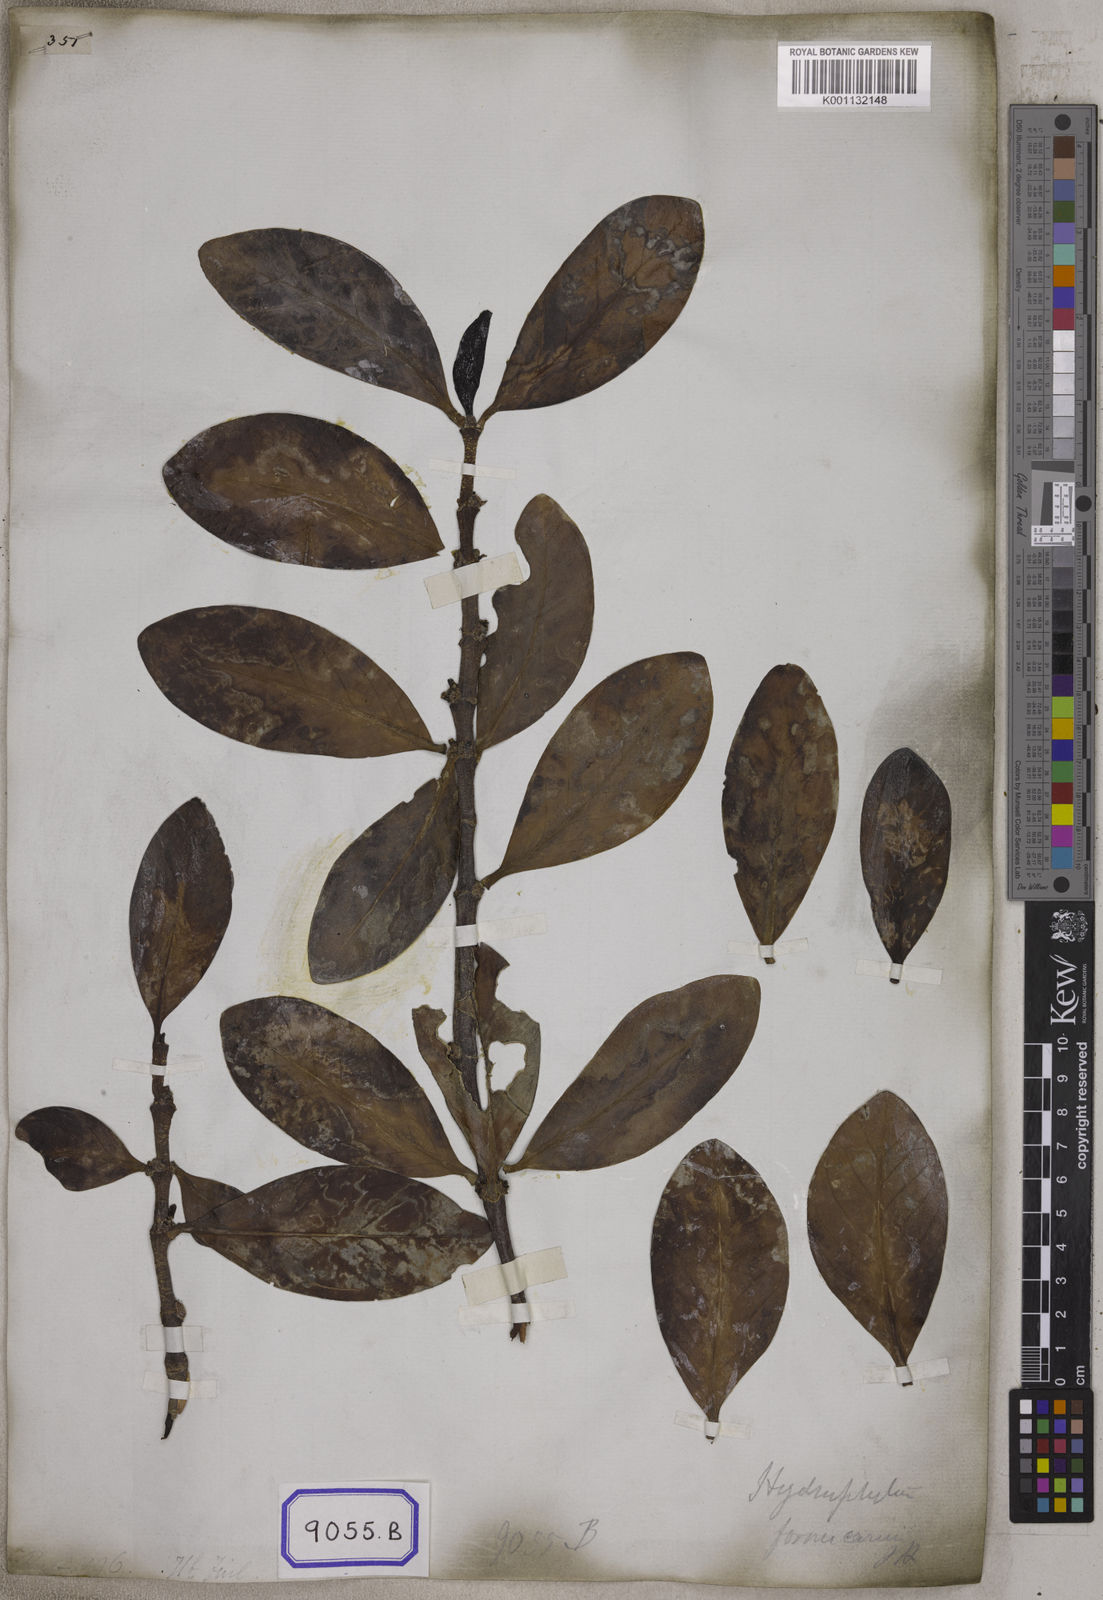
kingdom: Plantae
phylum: Tracheophyta
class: Magnoliopsida
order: Gentianales
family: Rubiaceae
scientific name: Rubiaceae
